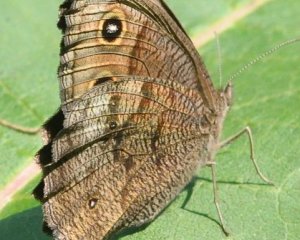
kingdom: Animalia
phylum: Arthropoda
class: Insecta
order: Lepidoptera
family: Nymphalidae
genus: Cercyonis
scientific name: Cercyonis pegala
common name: Common Wood-Nymph
